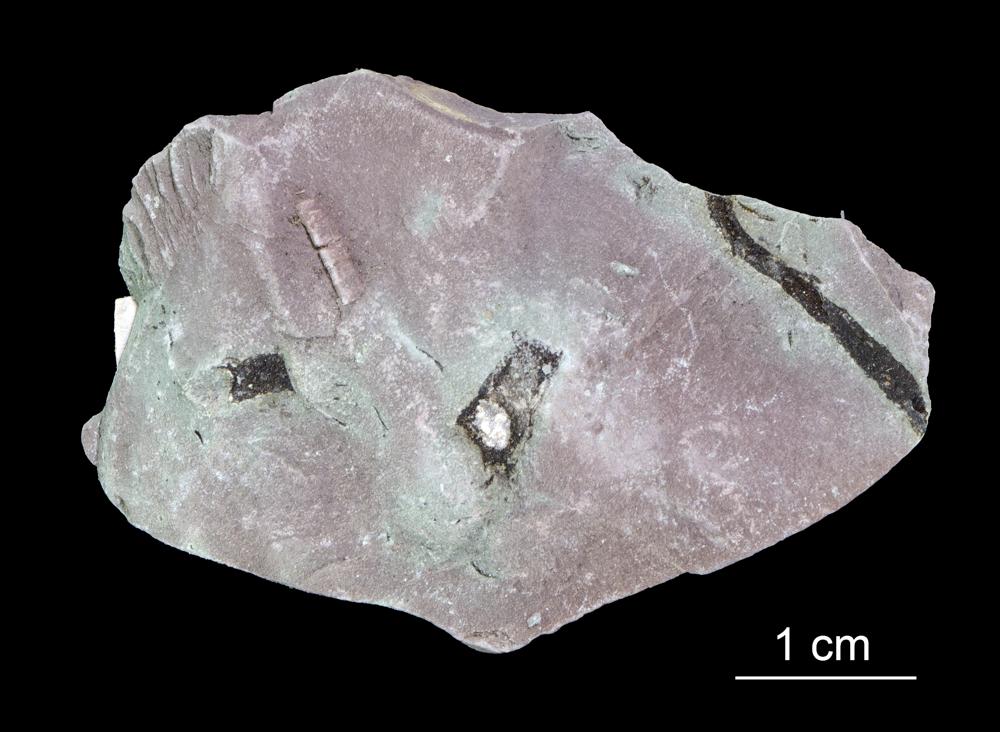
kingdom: Chromista
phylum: Foraminifera
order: Astrorhizida
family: Hyperamminidae
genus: Platysolenites
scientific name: Platysolenites antiquissimus
